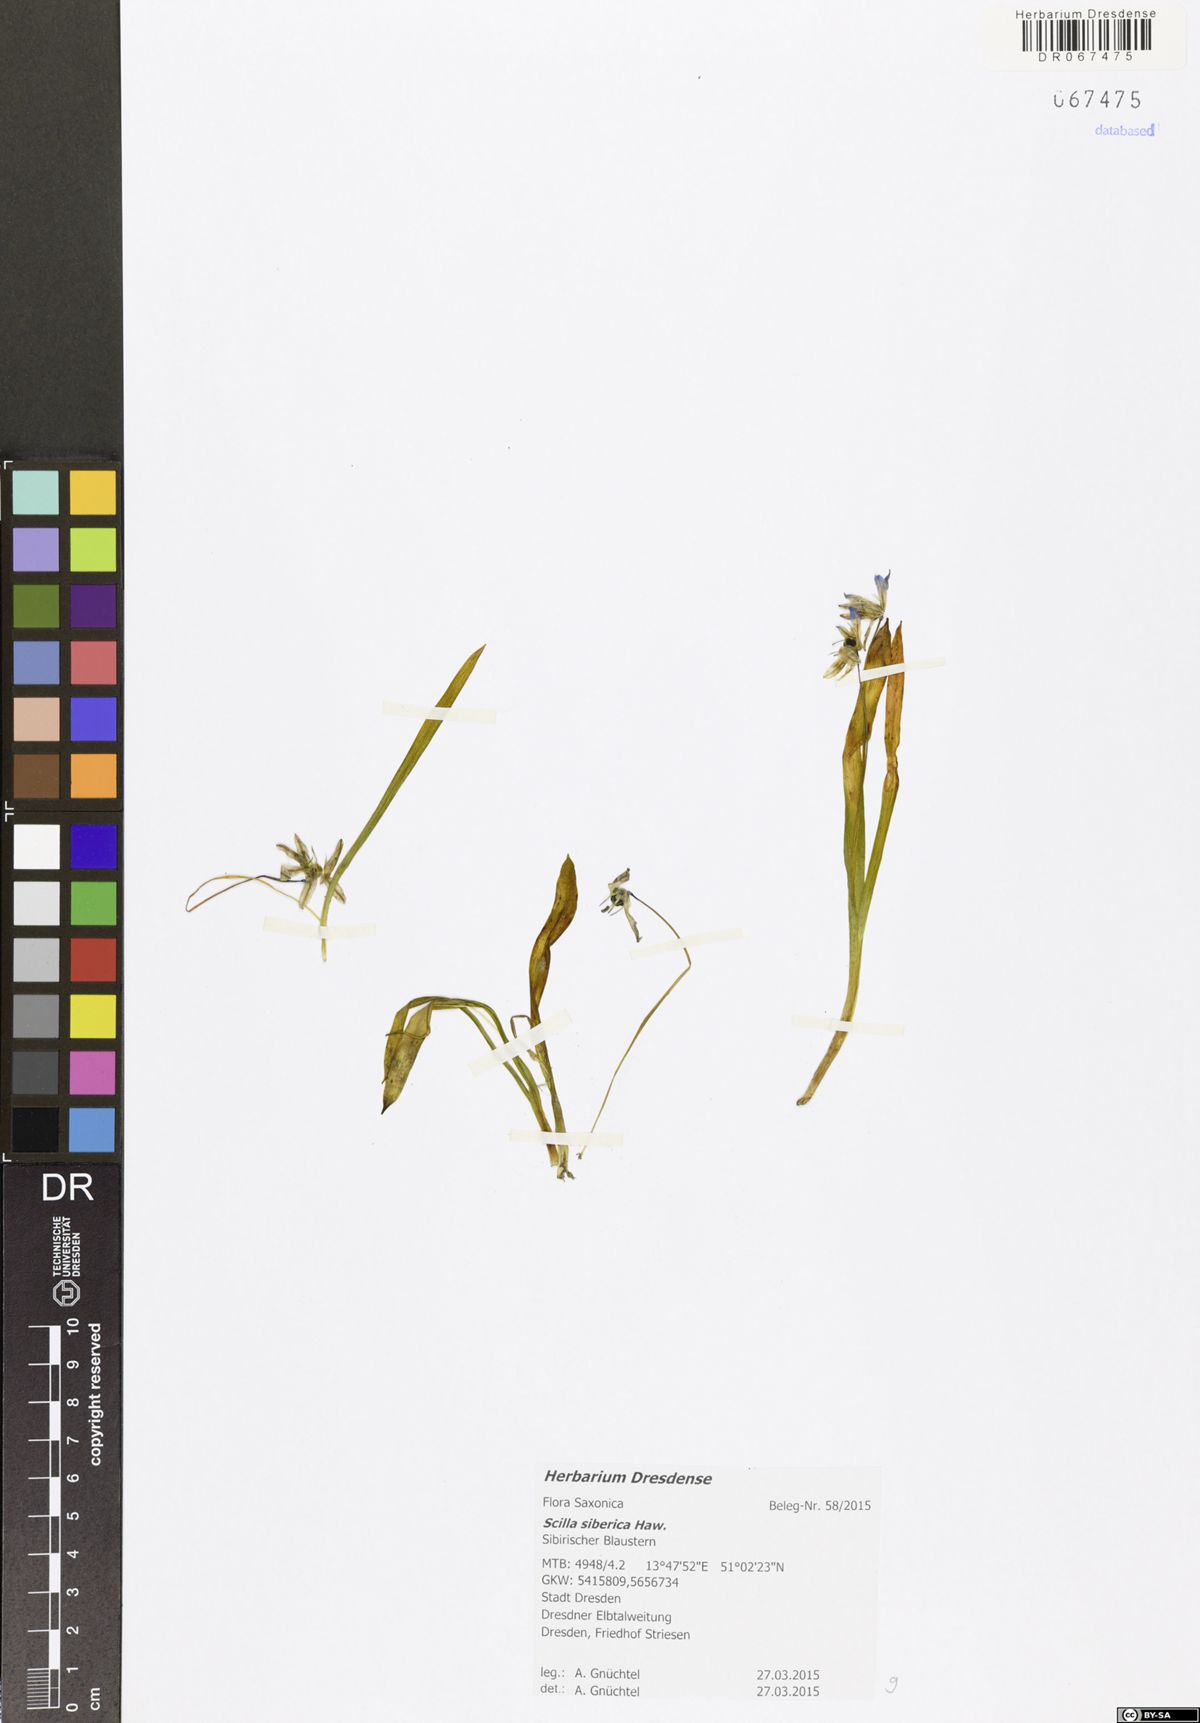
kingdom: Plantae
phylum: Tracheophyta
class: Liliopsida
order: Asparagales
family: Asparagaceae
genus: Scilla
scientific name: Scilla siberica
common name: Siberian squill
